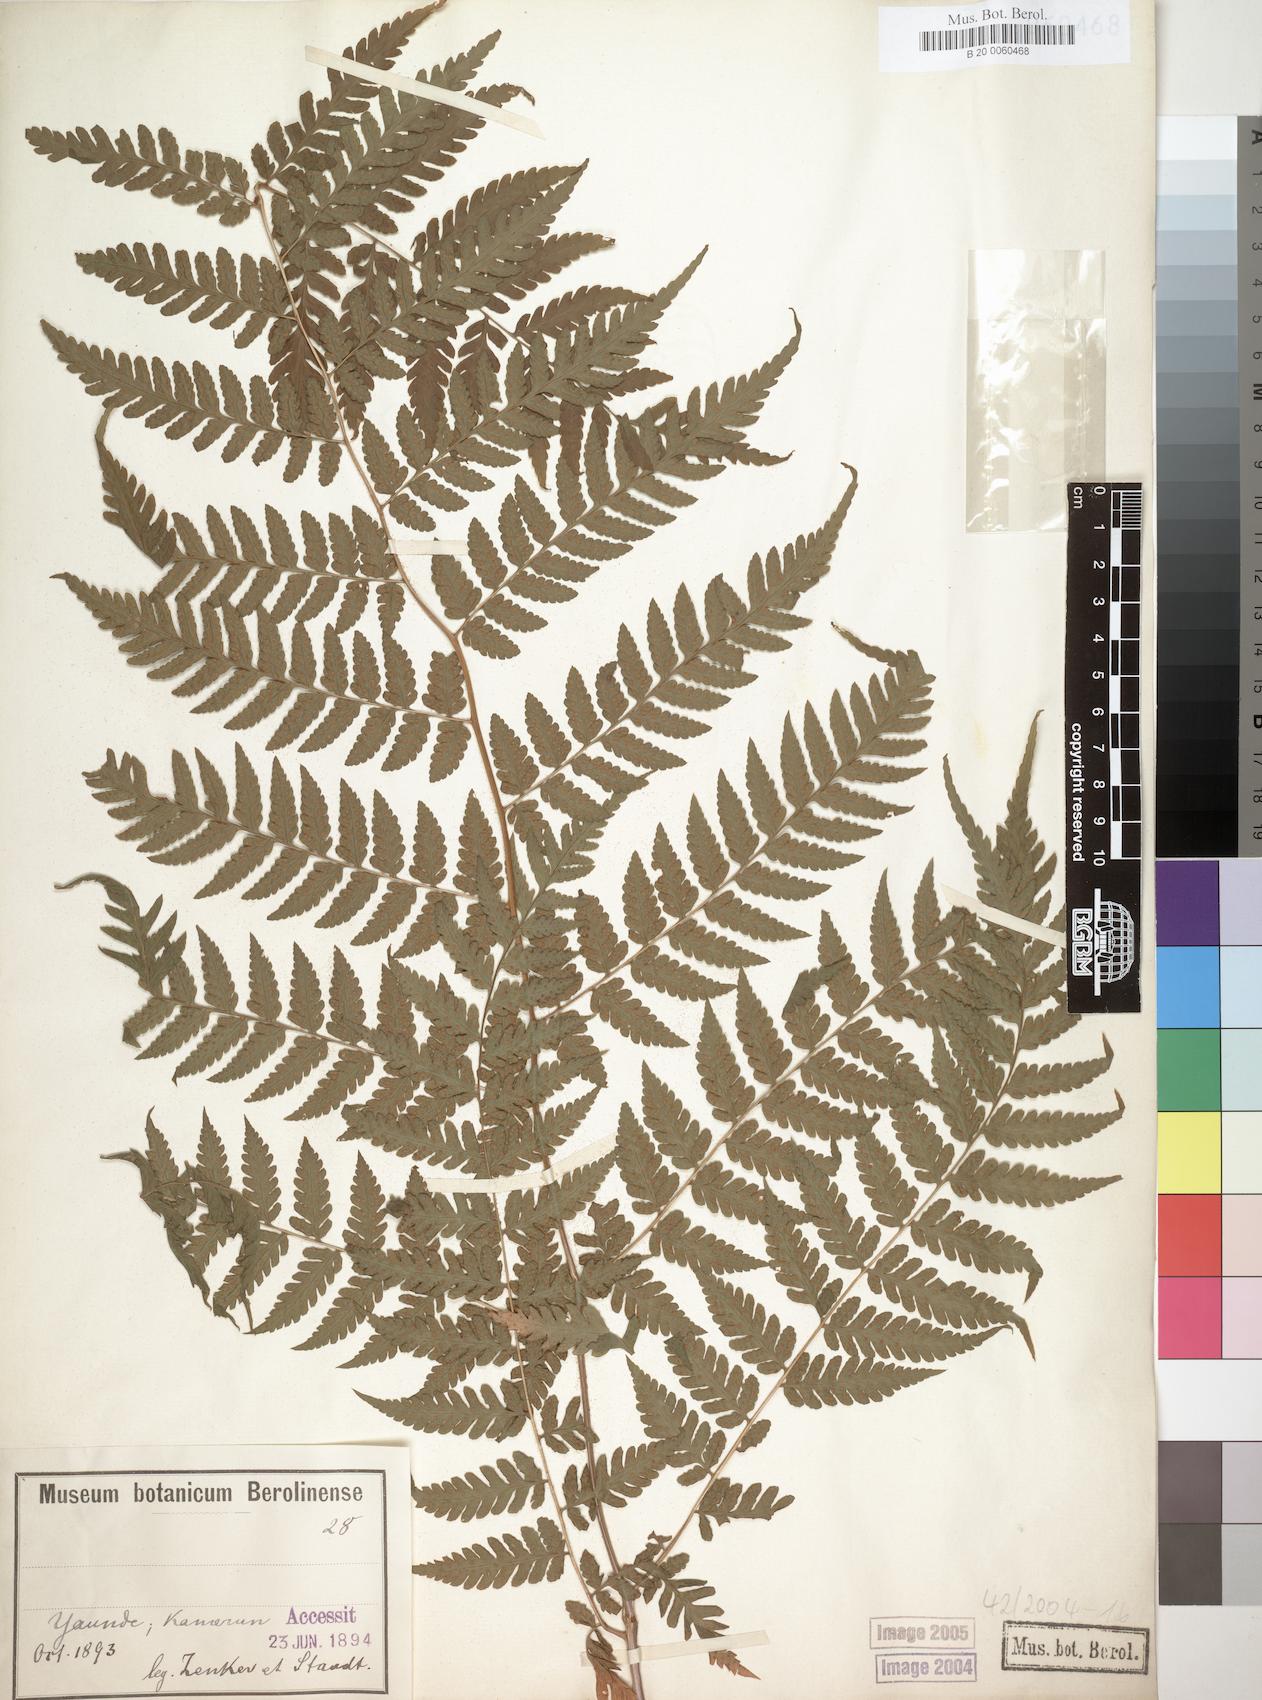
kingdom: Plantae
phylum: Tracheophyta
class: Polypodiopsida
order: Polypodiales
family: Dryopteridaceae
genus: Parapolystichum
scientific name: Parapolystichum nigritianum
